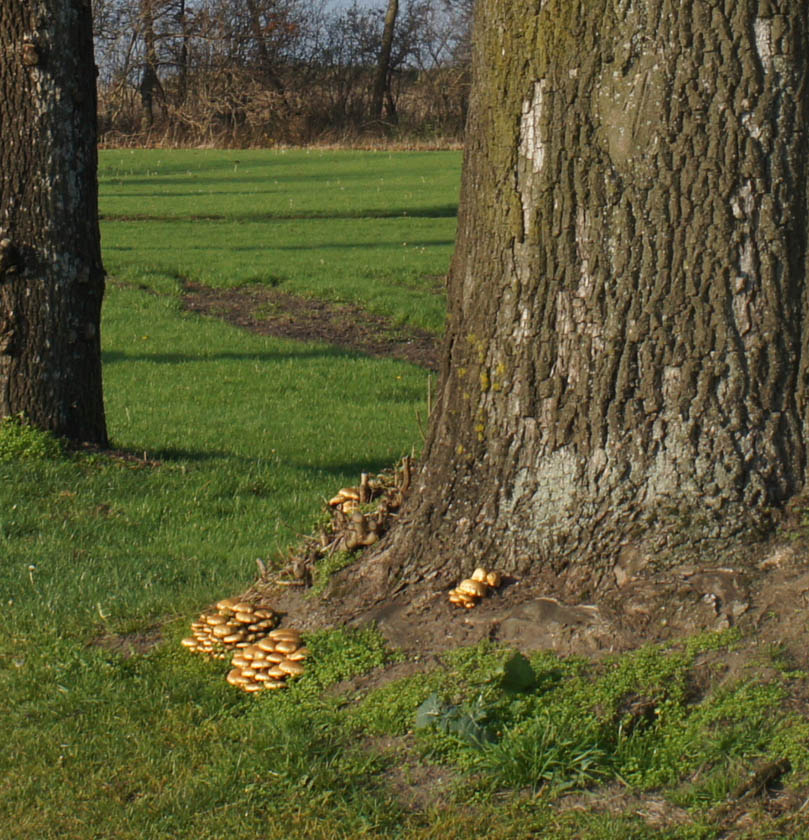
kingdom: Fungi
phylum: Basidiomycota
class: Agaricomycetes
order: Agaricales
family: Strophariaceae
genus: Pholiota
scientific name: Pholiota squarrosa
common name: krumskællet skælhat
